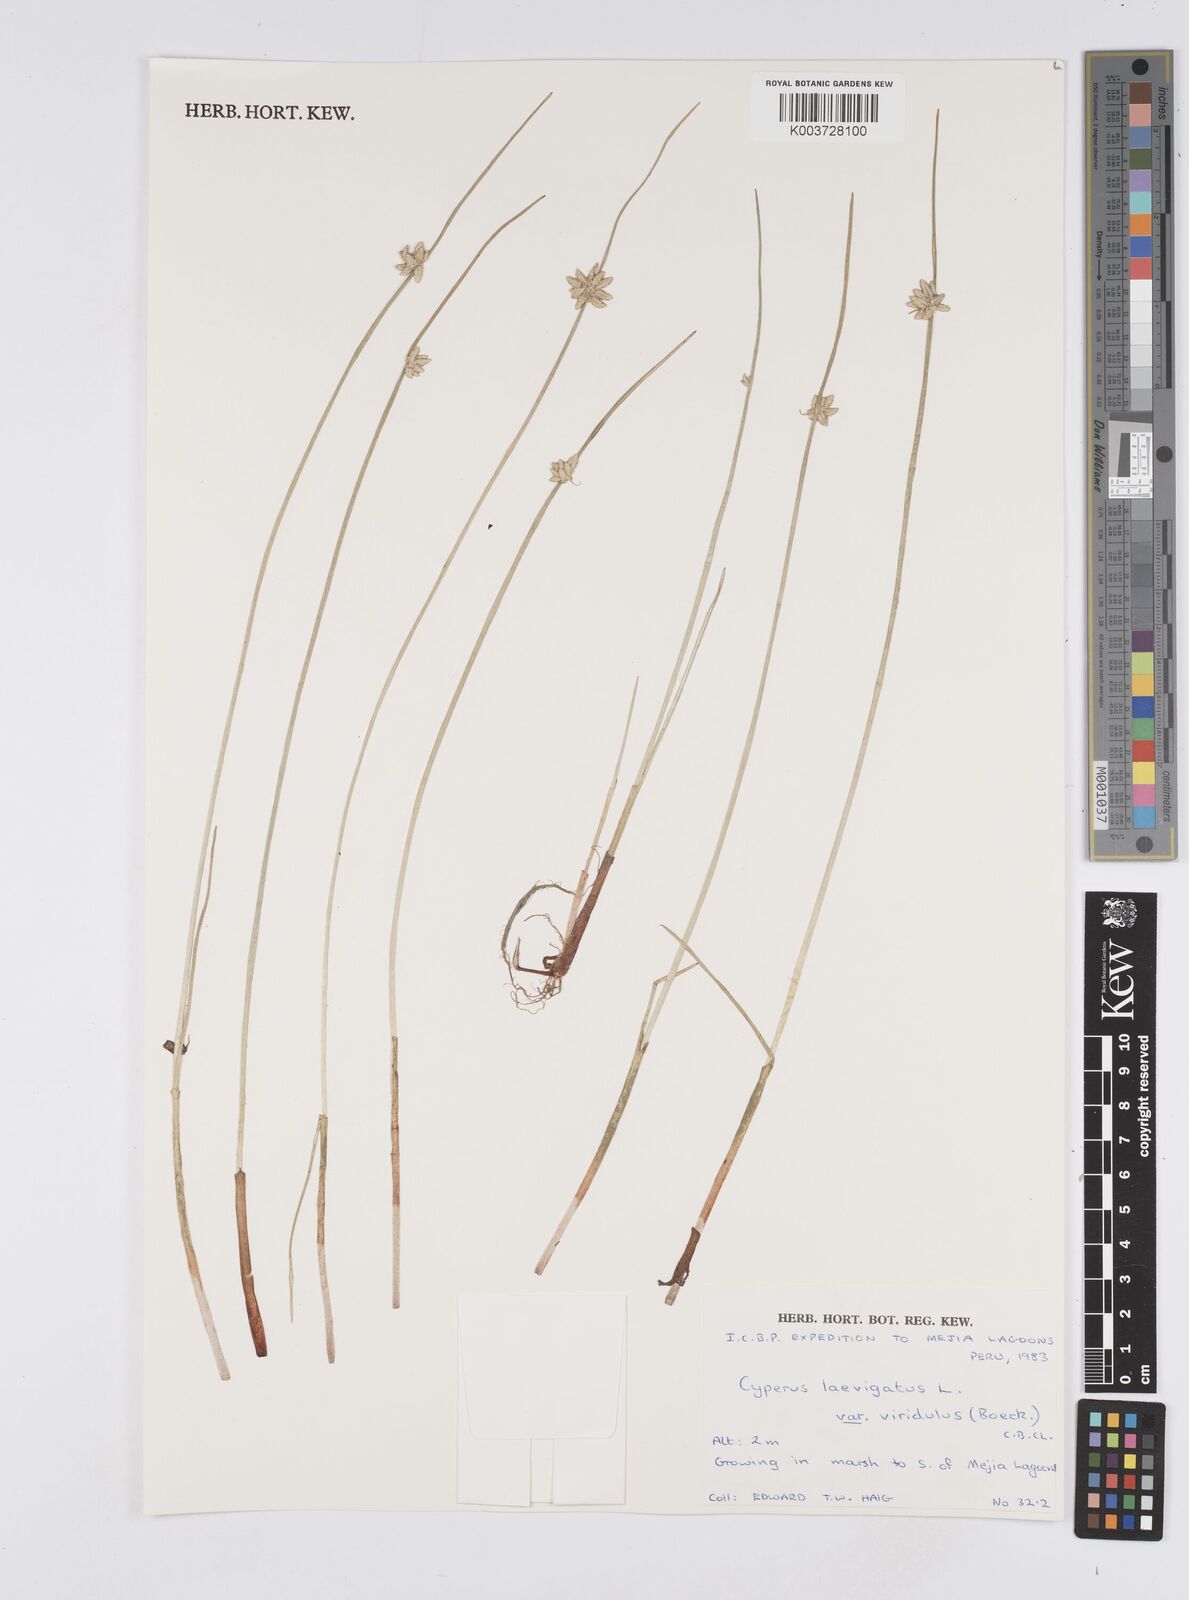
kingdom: Plantae
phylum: Tracheophyta
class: Liliopsida
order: Poales
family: Cyperaceae
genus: Cyperus
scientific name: Cyperus laevigatus
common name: Smooth flat sedge
